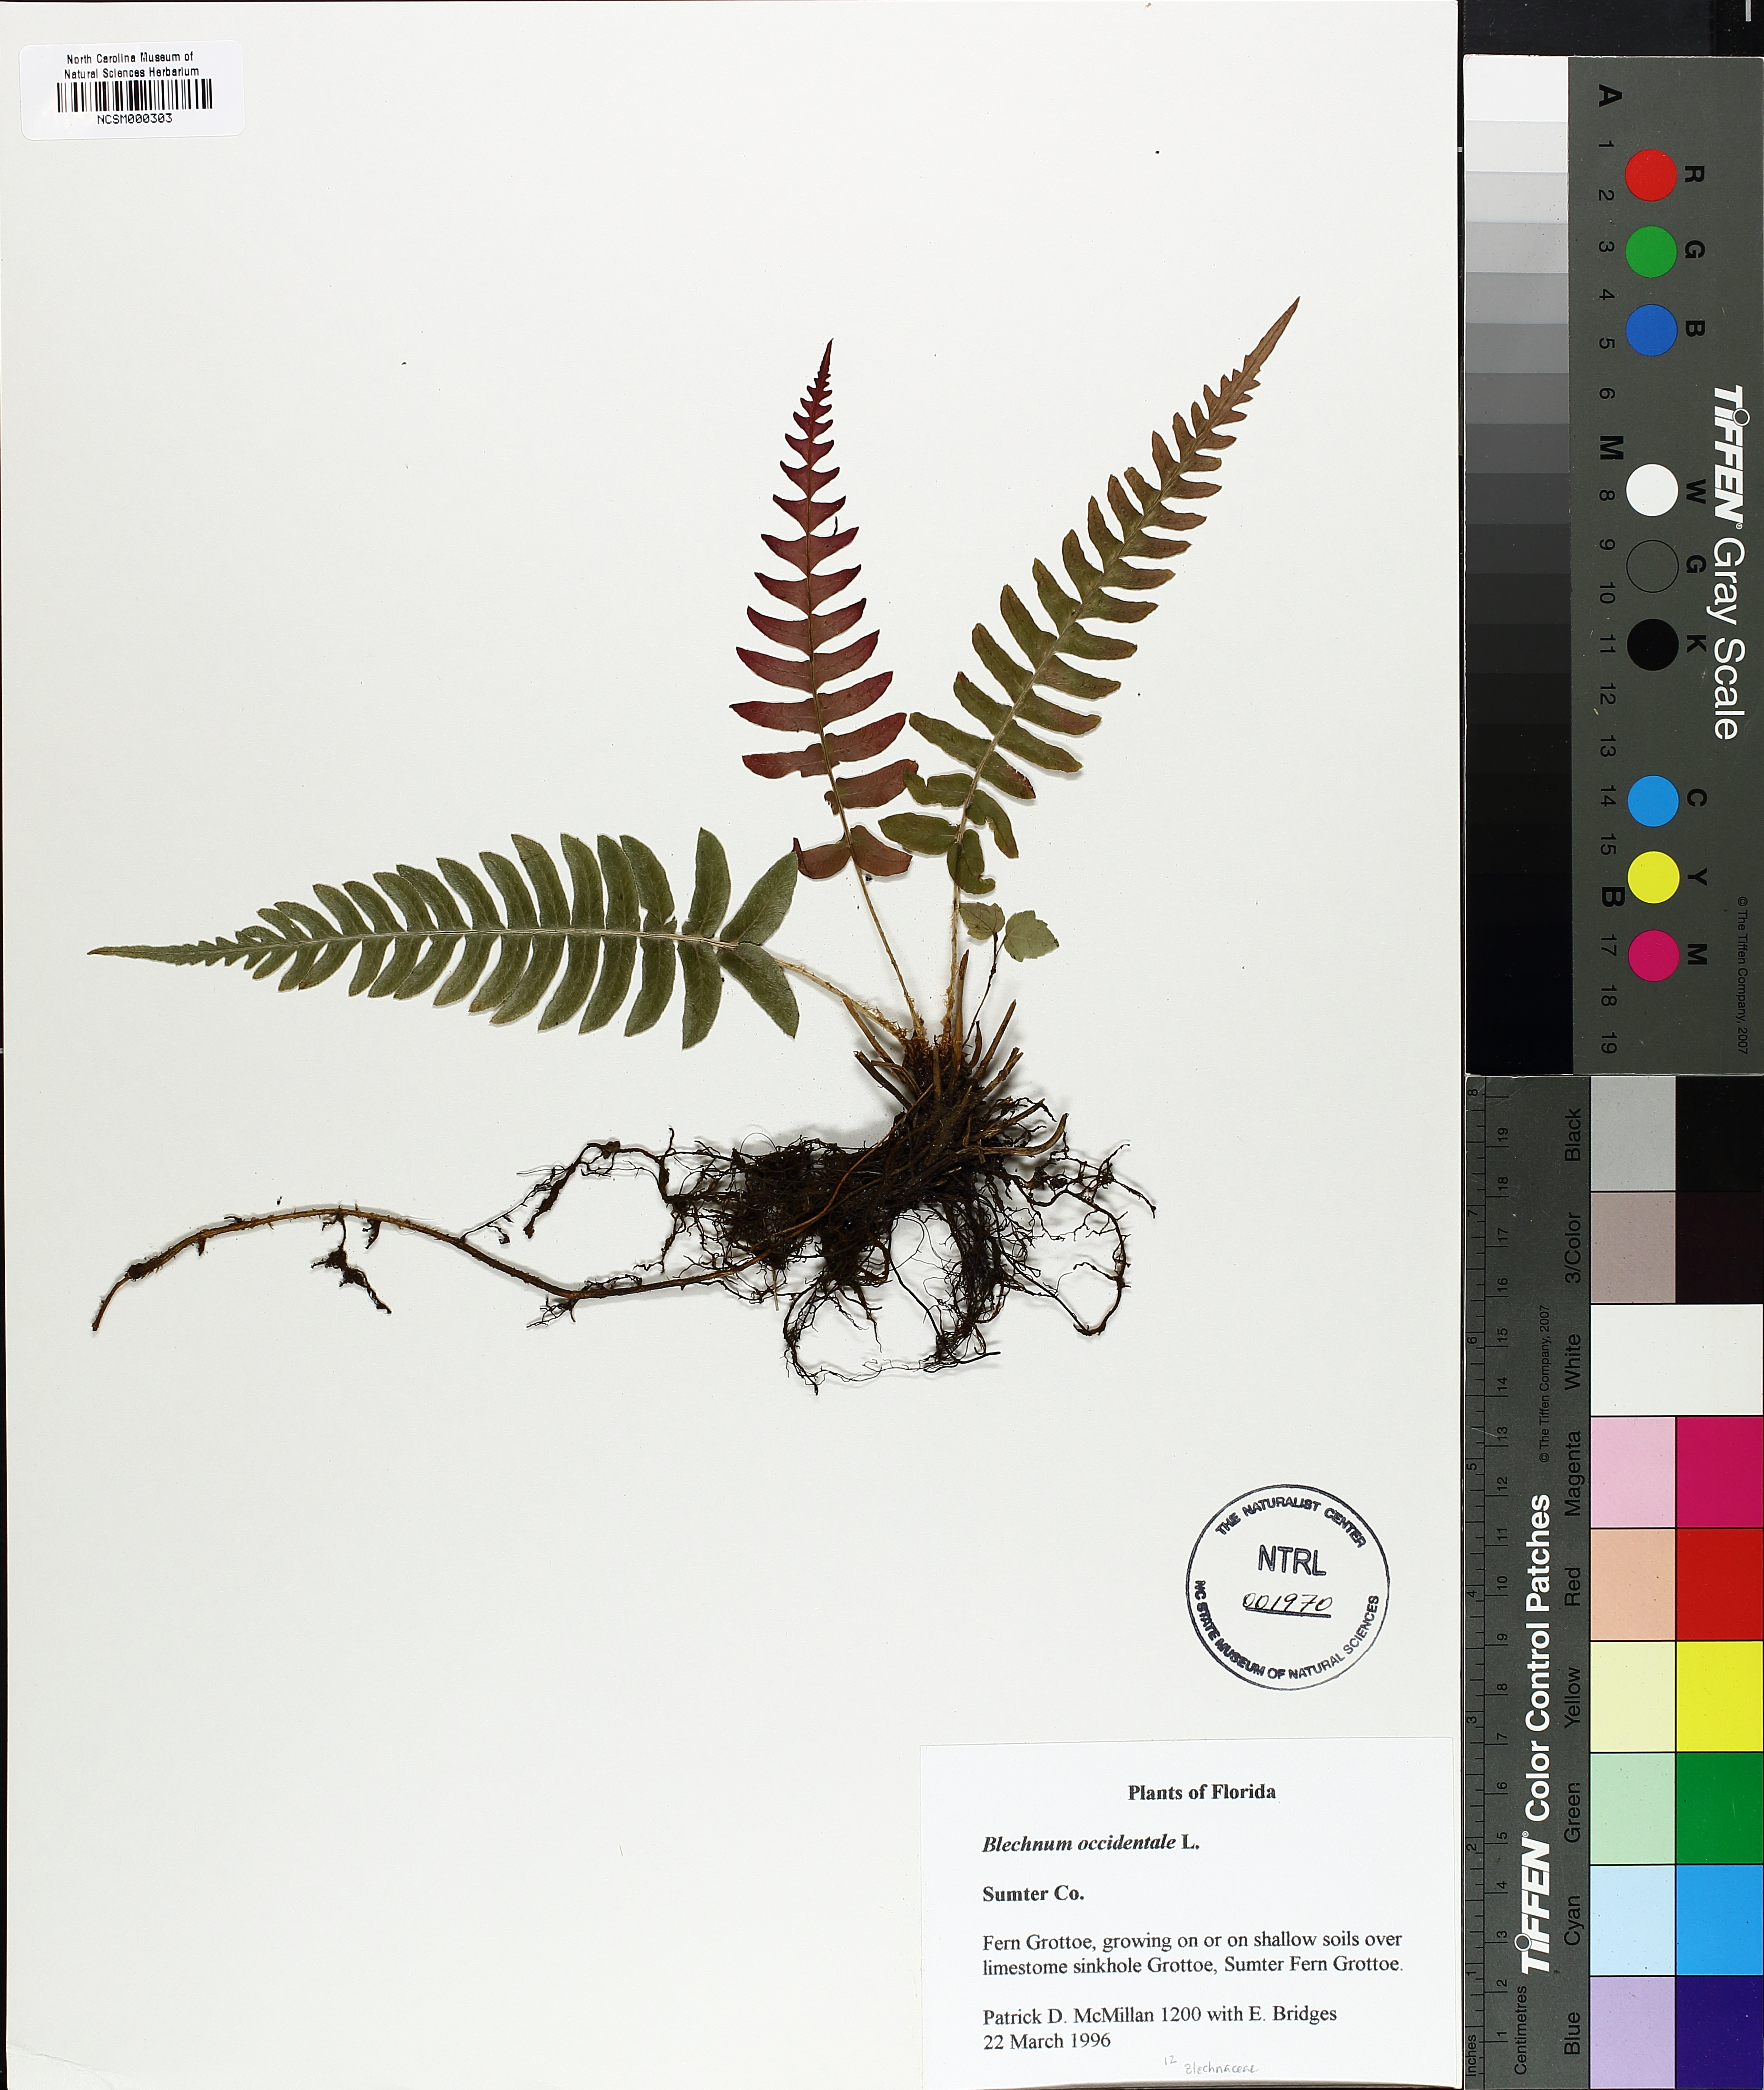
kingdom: Plantae
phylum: Tracheophyta
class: Polypodiopsida
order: Polypodiales
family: Blechnaceae
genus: Blechnum
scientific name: Blechnum occidentale
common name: Hammock fern
